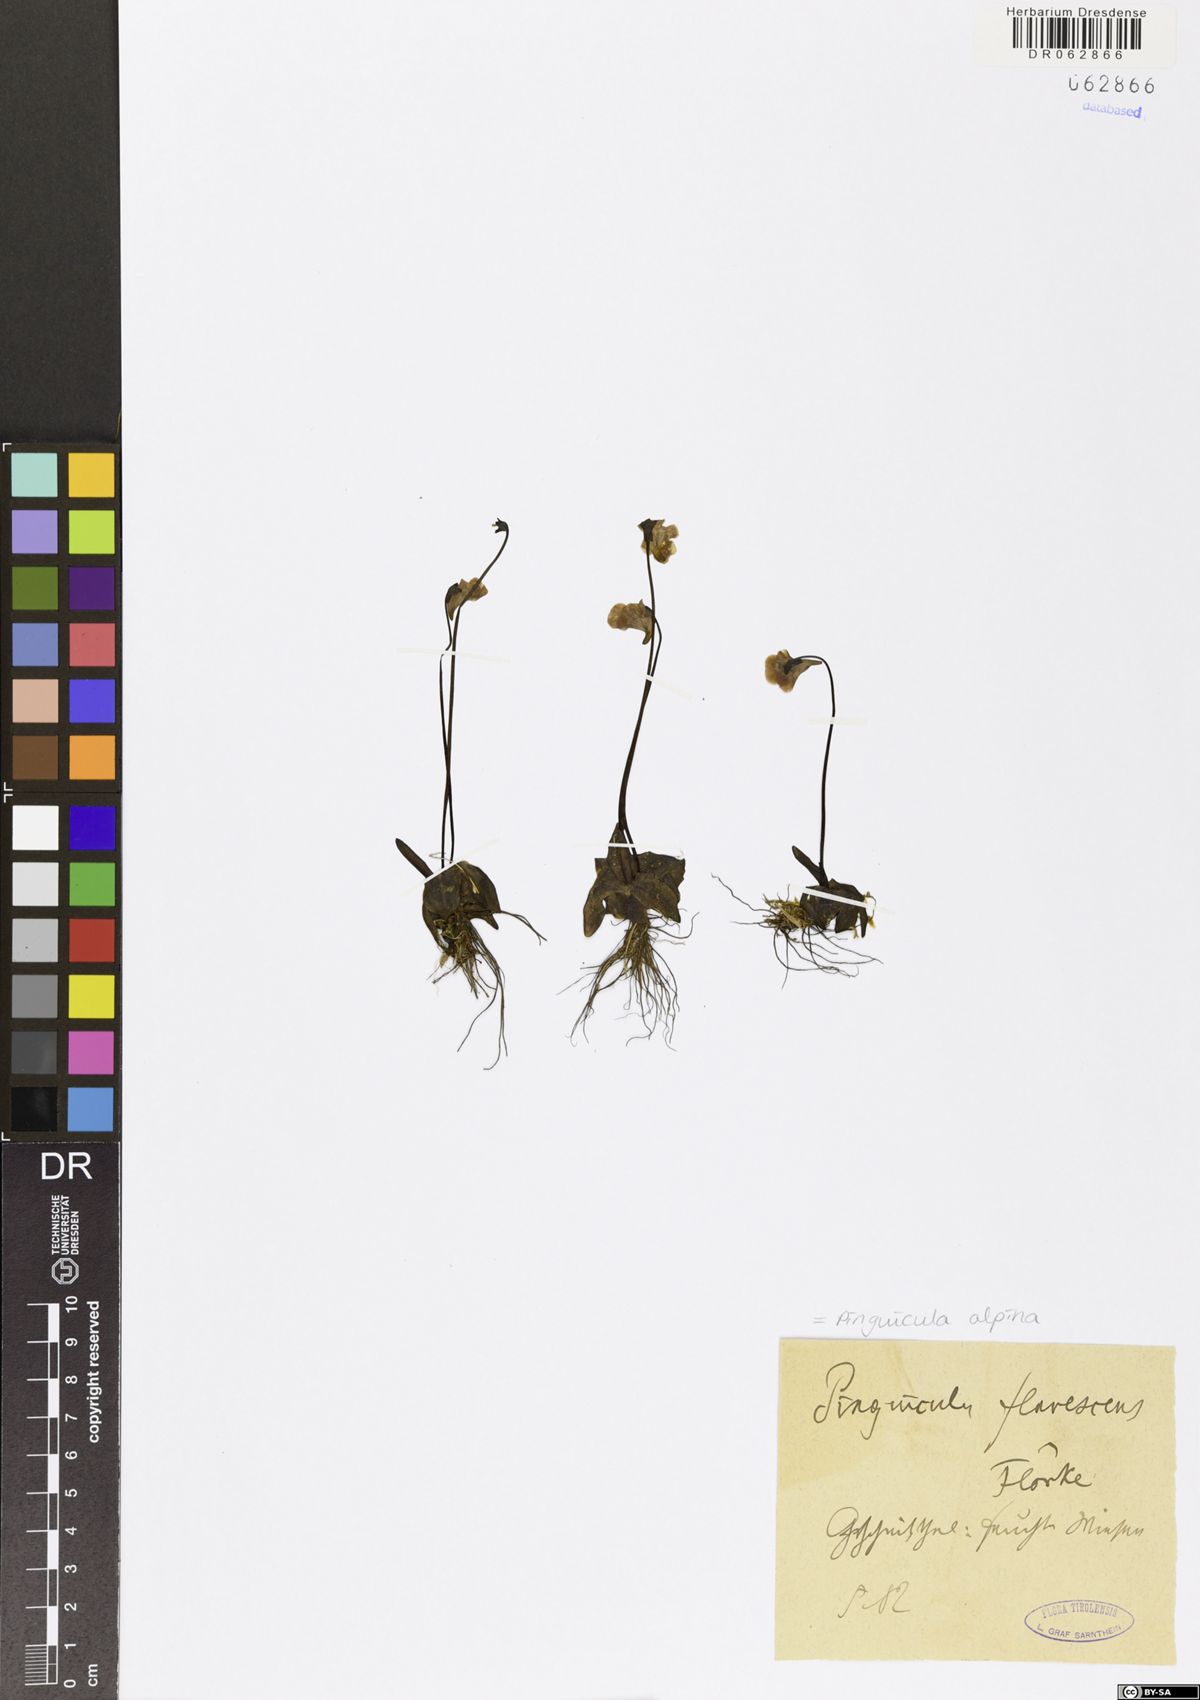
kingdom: Plantae
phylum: Tracheophyta
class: Magnoliopsida
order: Lamiales
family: Lentibulariaceae
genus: Pinguicula
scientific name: Pinguicula alpina
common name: Alpine butterwort
